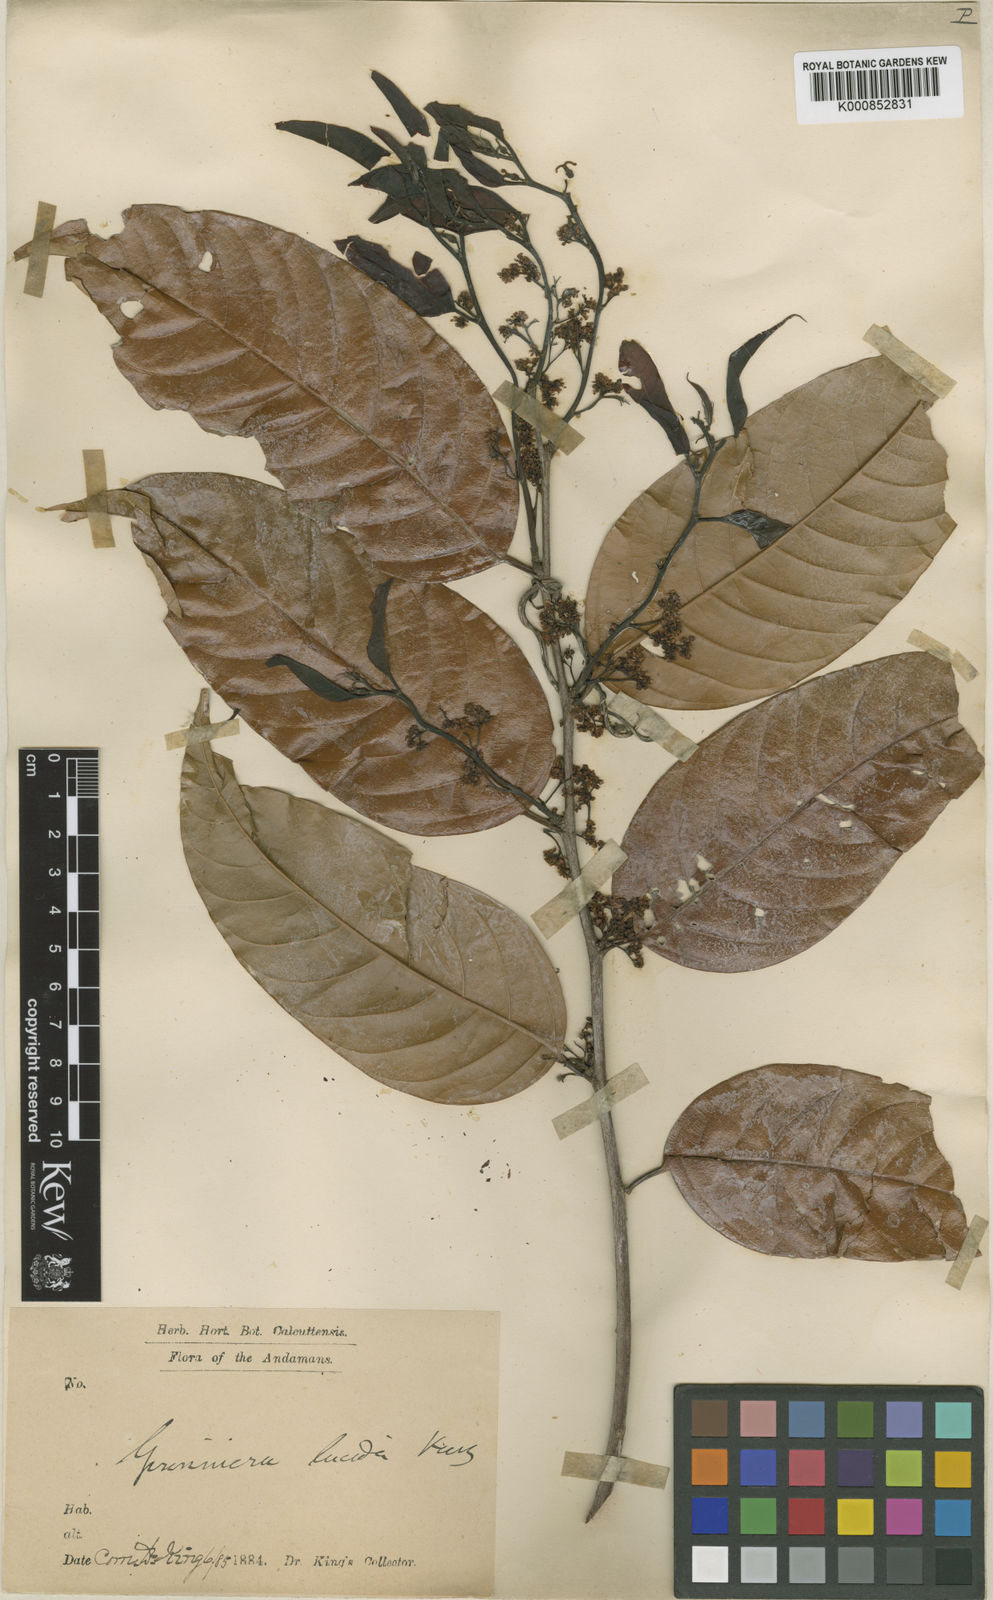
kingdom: Plantae
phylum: Tracheophyta
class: Magnoliopsida
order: Rosales
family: Cannabaceae
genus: Aphananthe
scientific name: Aphananthe cuspidata
